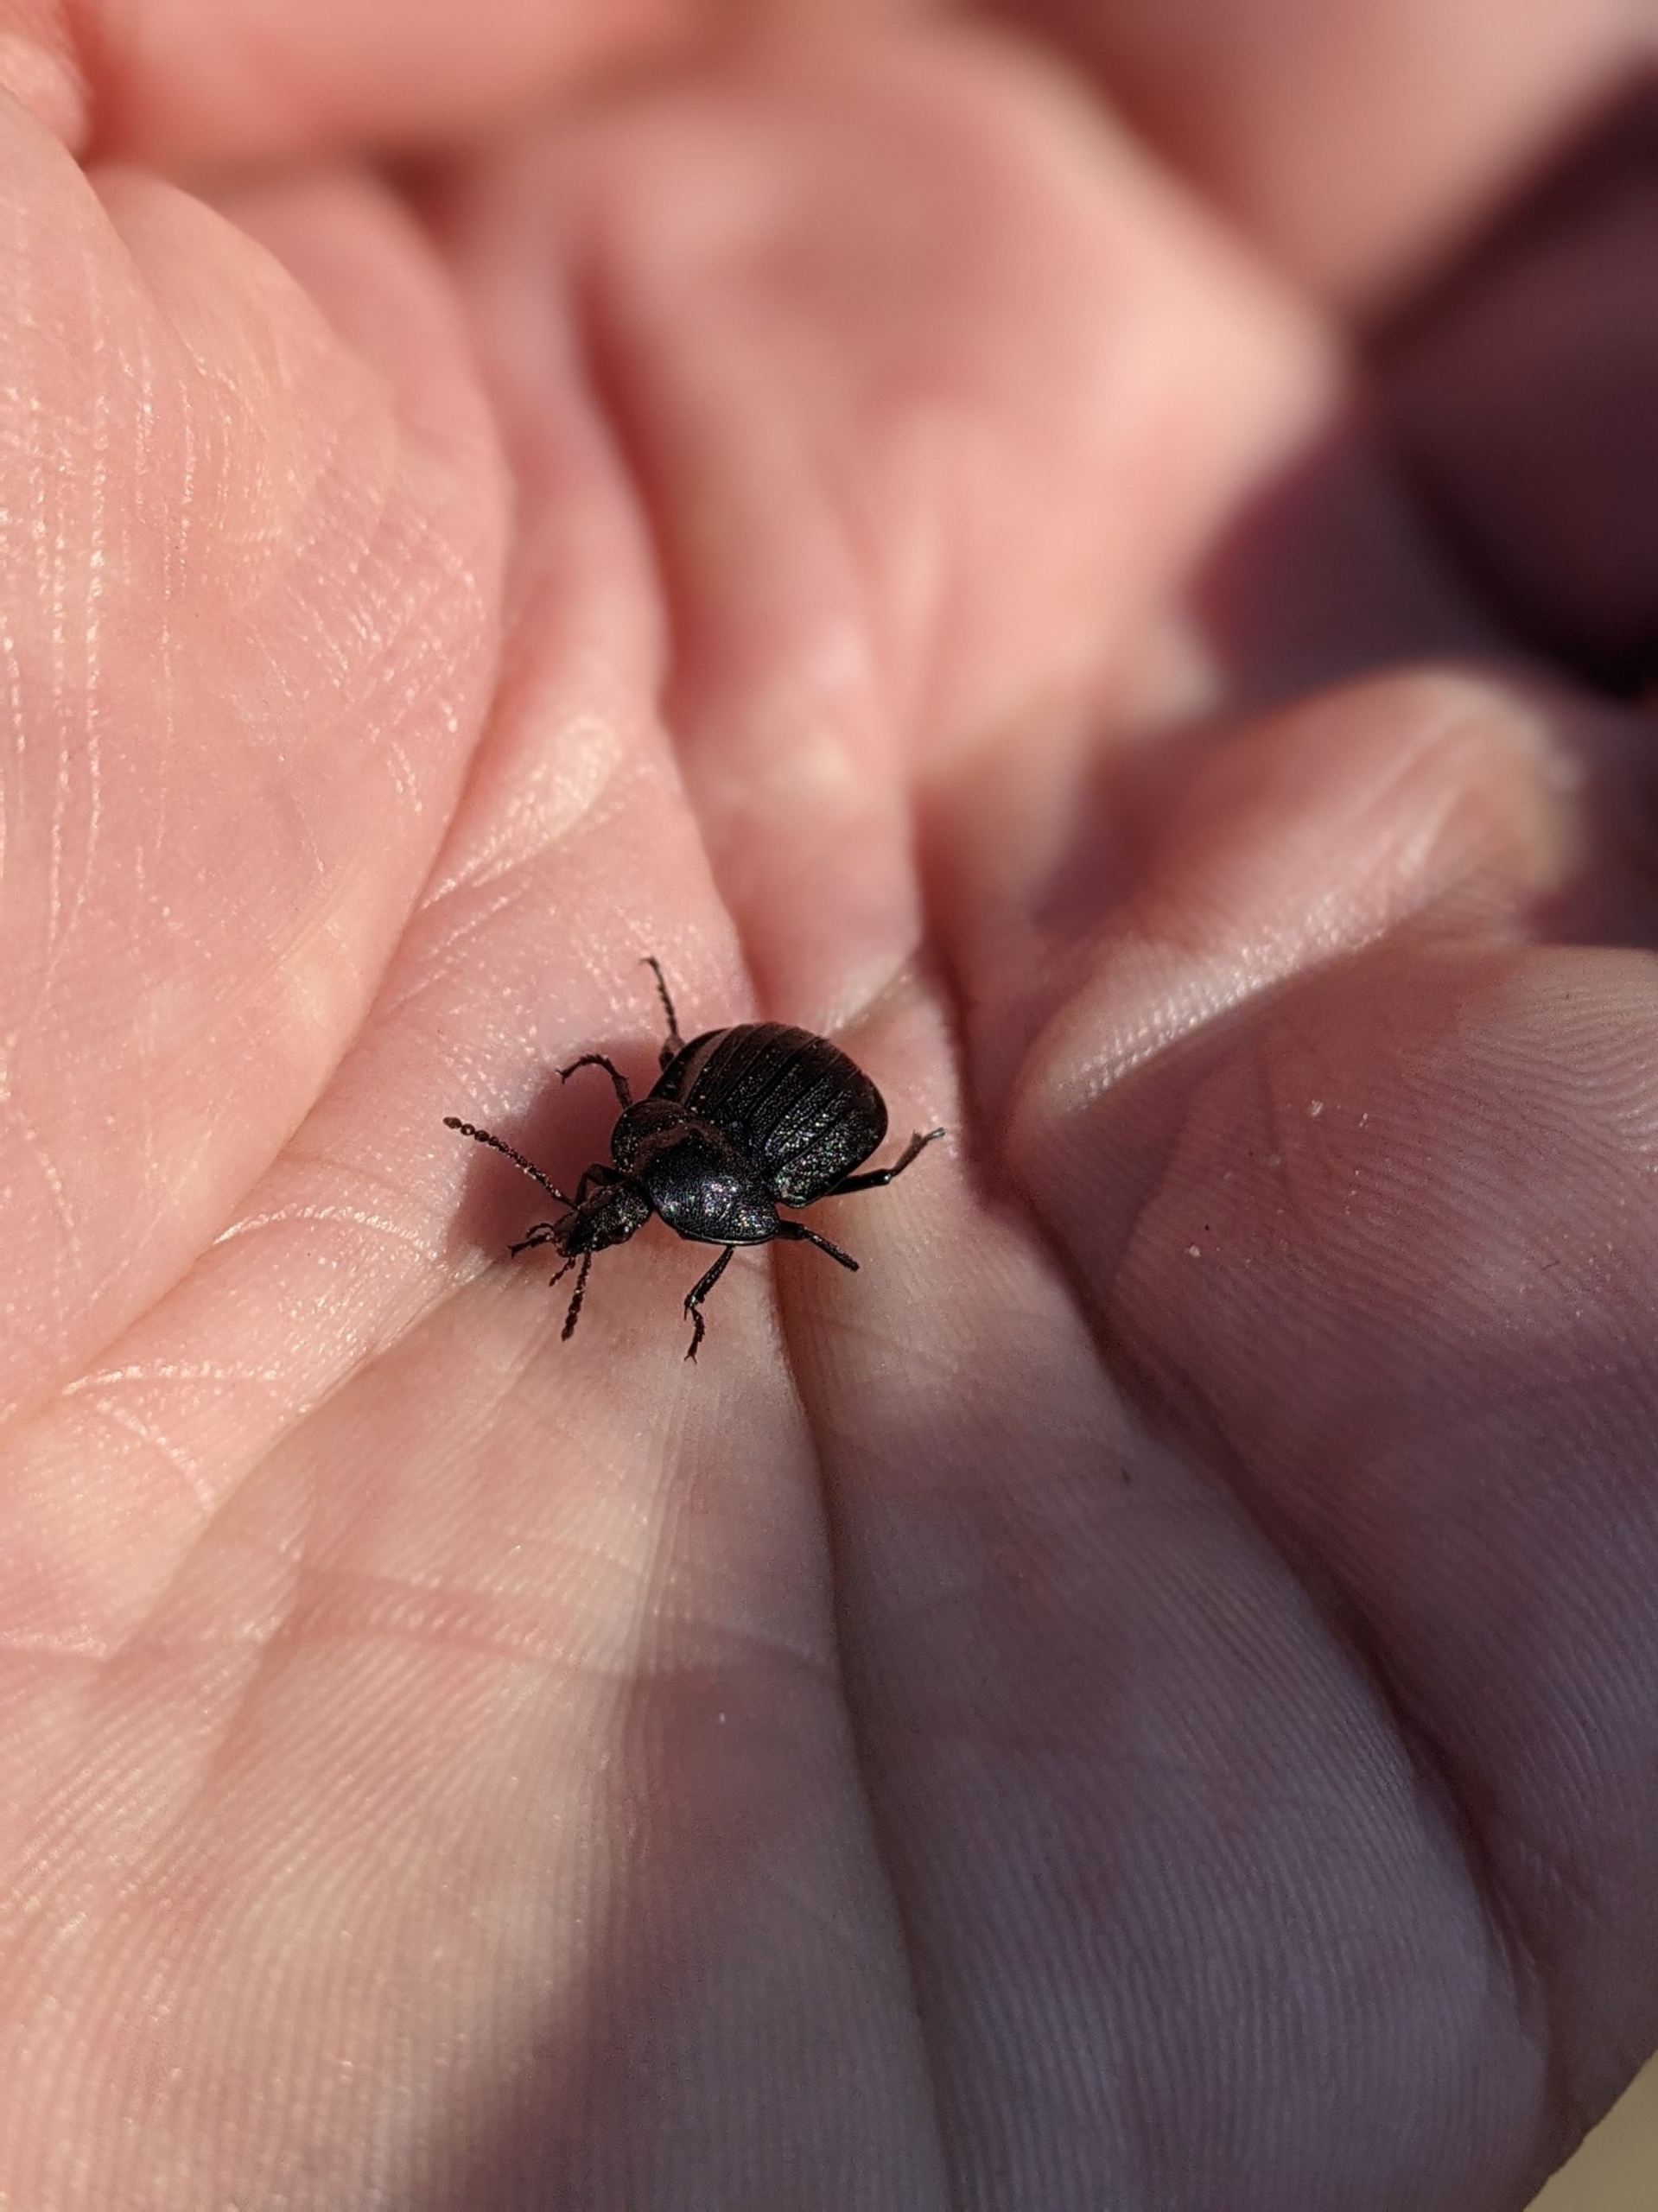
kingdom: Animalia
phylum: Arthropoda
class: Insecta
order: Coleoptera
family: Staphylinidae
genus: Silpha
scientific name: Silpha atrata
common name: Snegleådselbille
